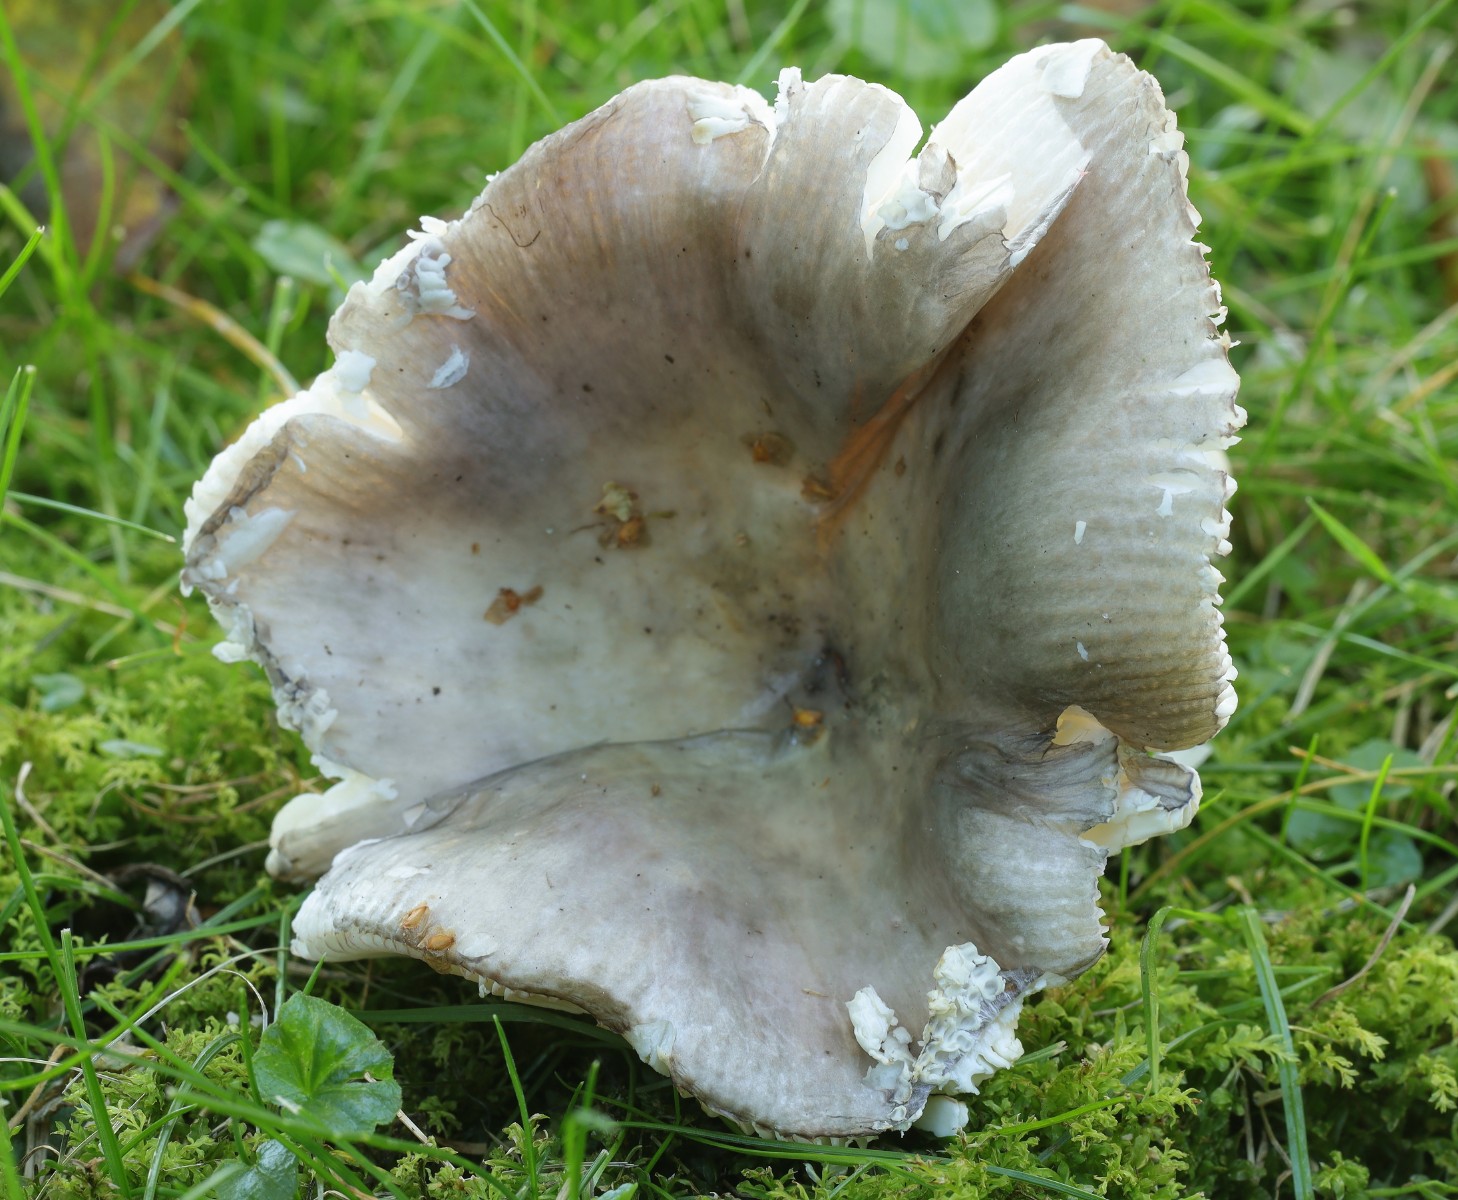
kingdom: Fungi
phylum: Basidiomycota
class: Agaricomycetes
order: Russulales
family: Russulaceae
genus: Russula
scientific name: Russula
